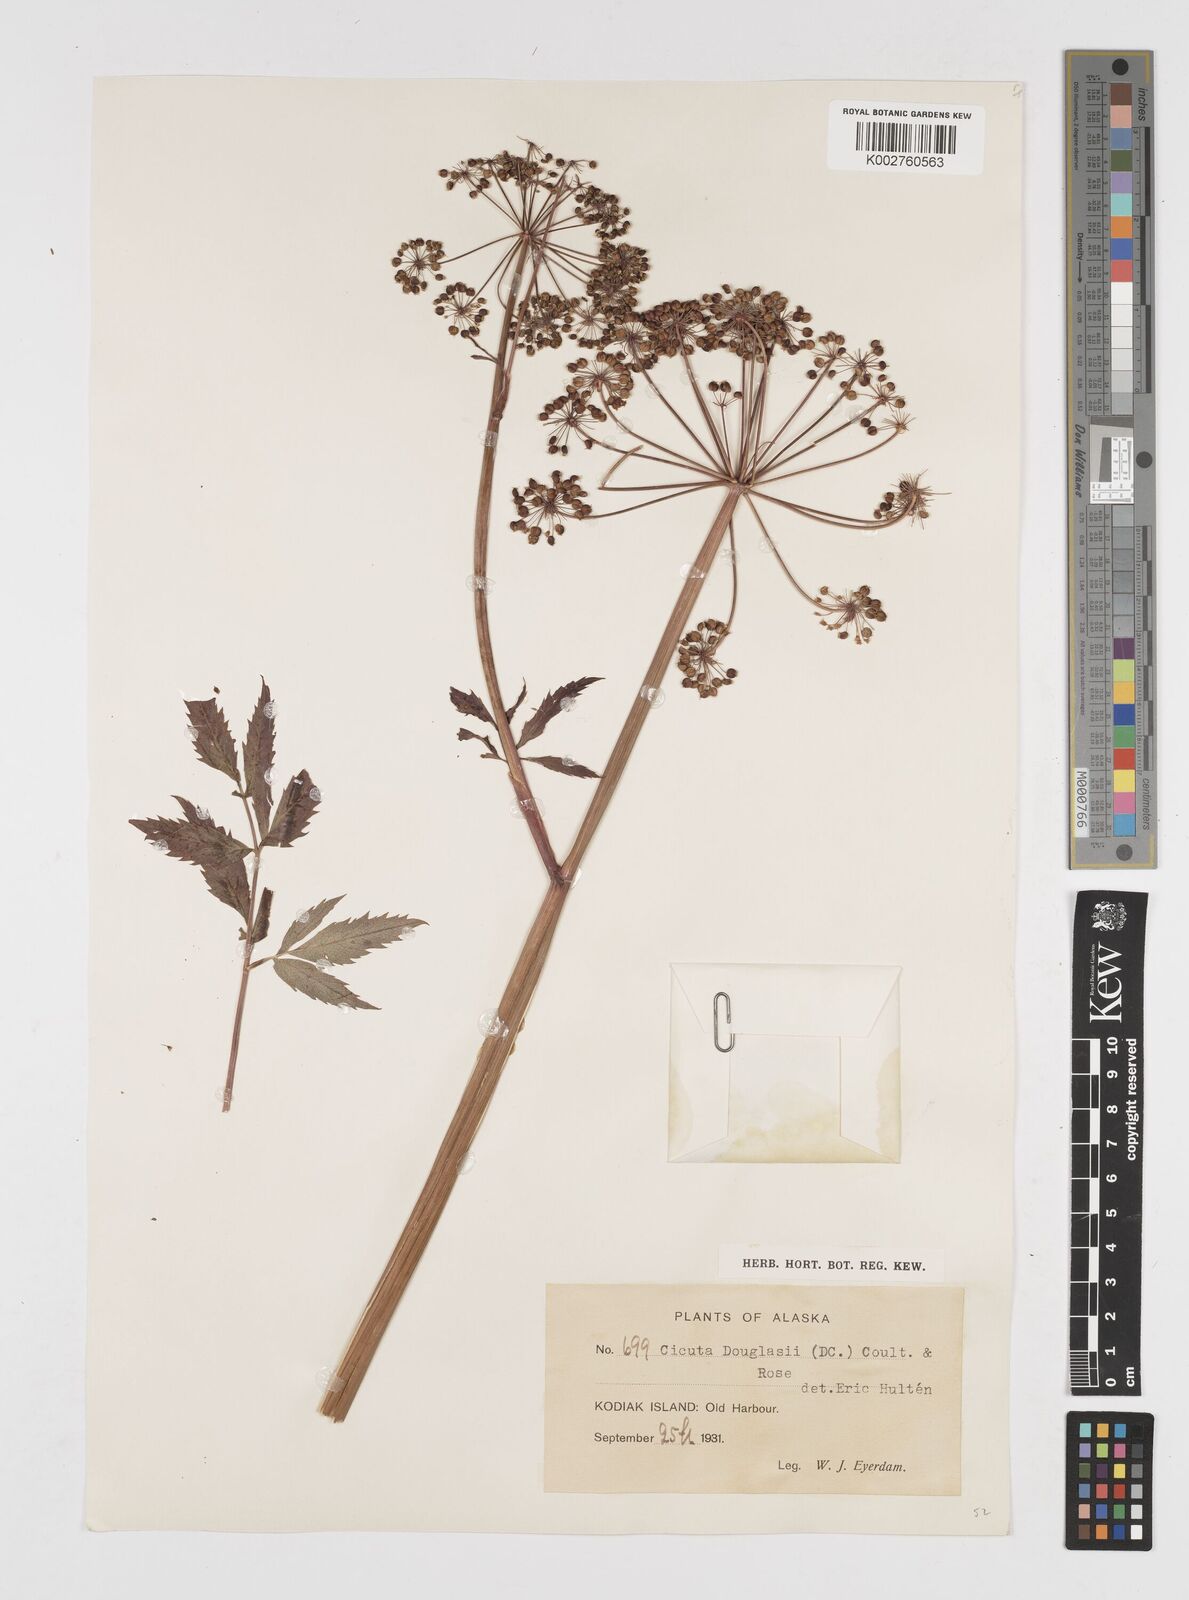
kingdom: Plantae
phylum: Tracheophyta
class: Magnoliopsida
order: Apiales
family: Apiaceae
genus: Cicuta
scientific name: Cicuta douglasii
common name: Western water-hemlock
